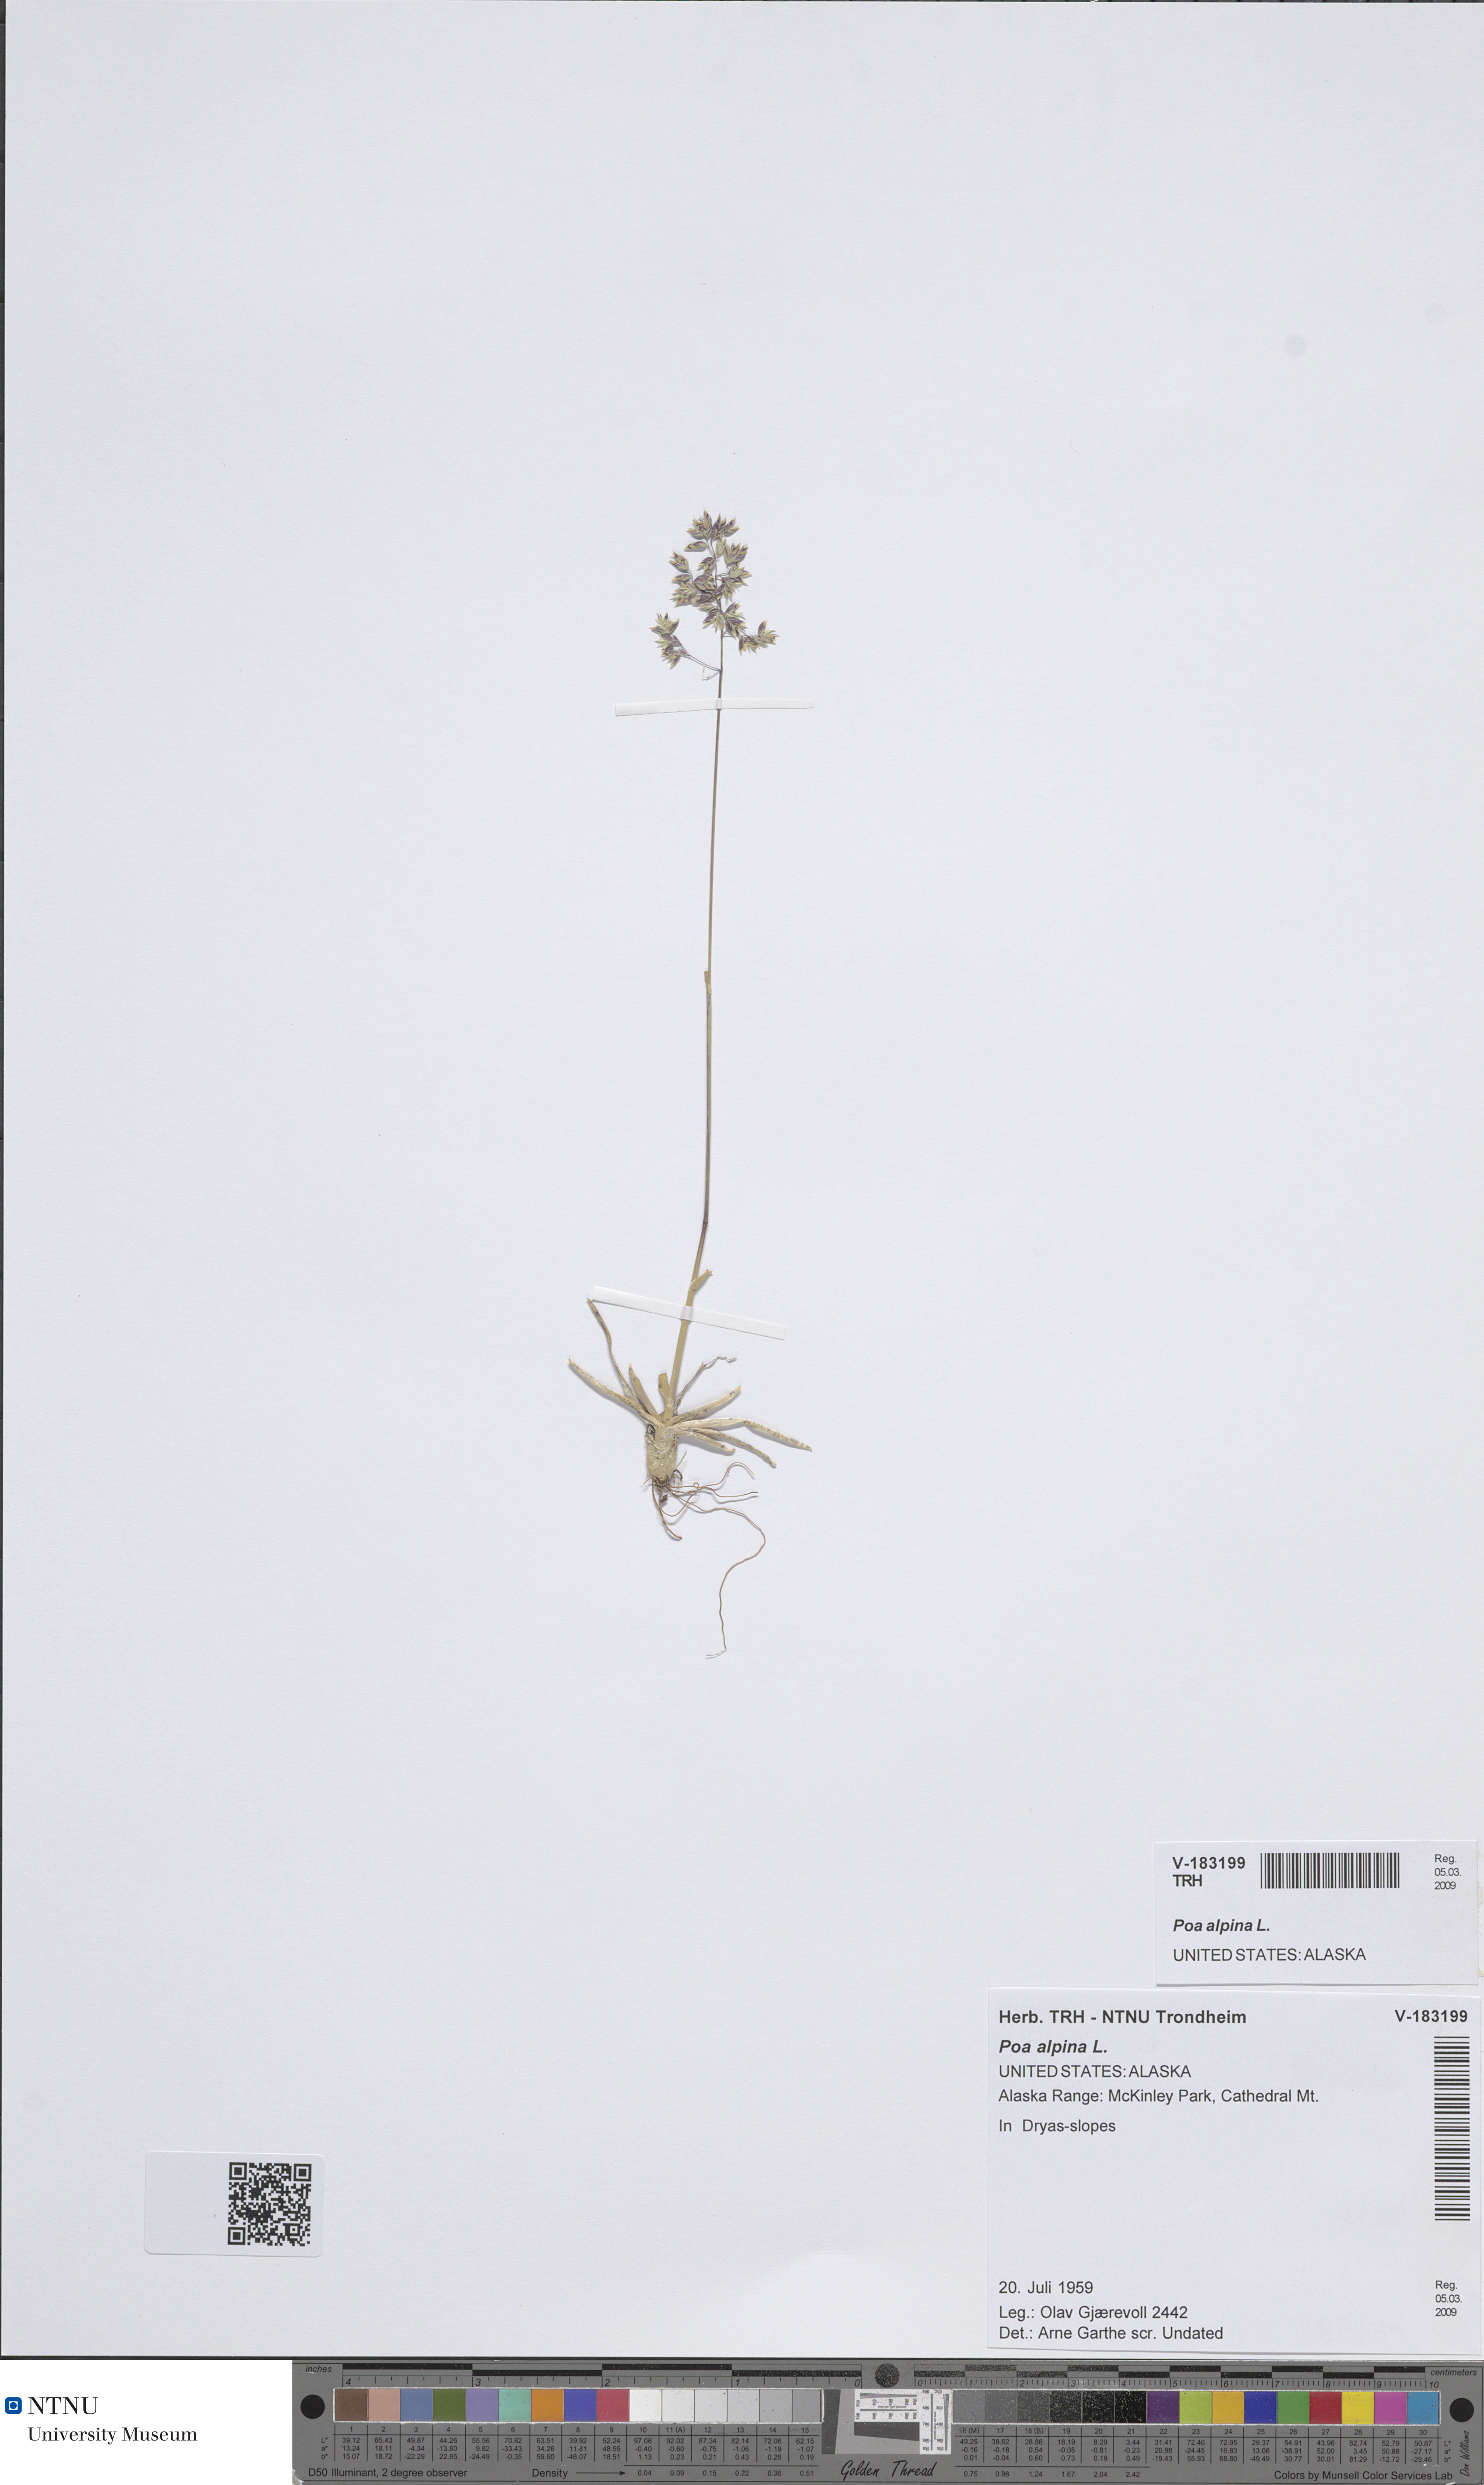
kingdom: Plantae
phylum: Tracheophyta
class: Liliopsida
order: Poales
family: Poaceae
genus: Poa
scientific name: Poa alpina
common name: Alpine bluegrass
